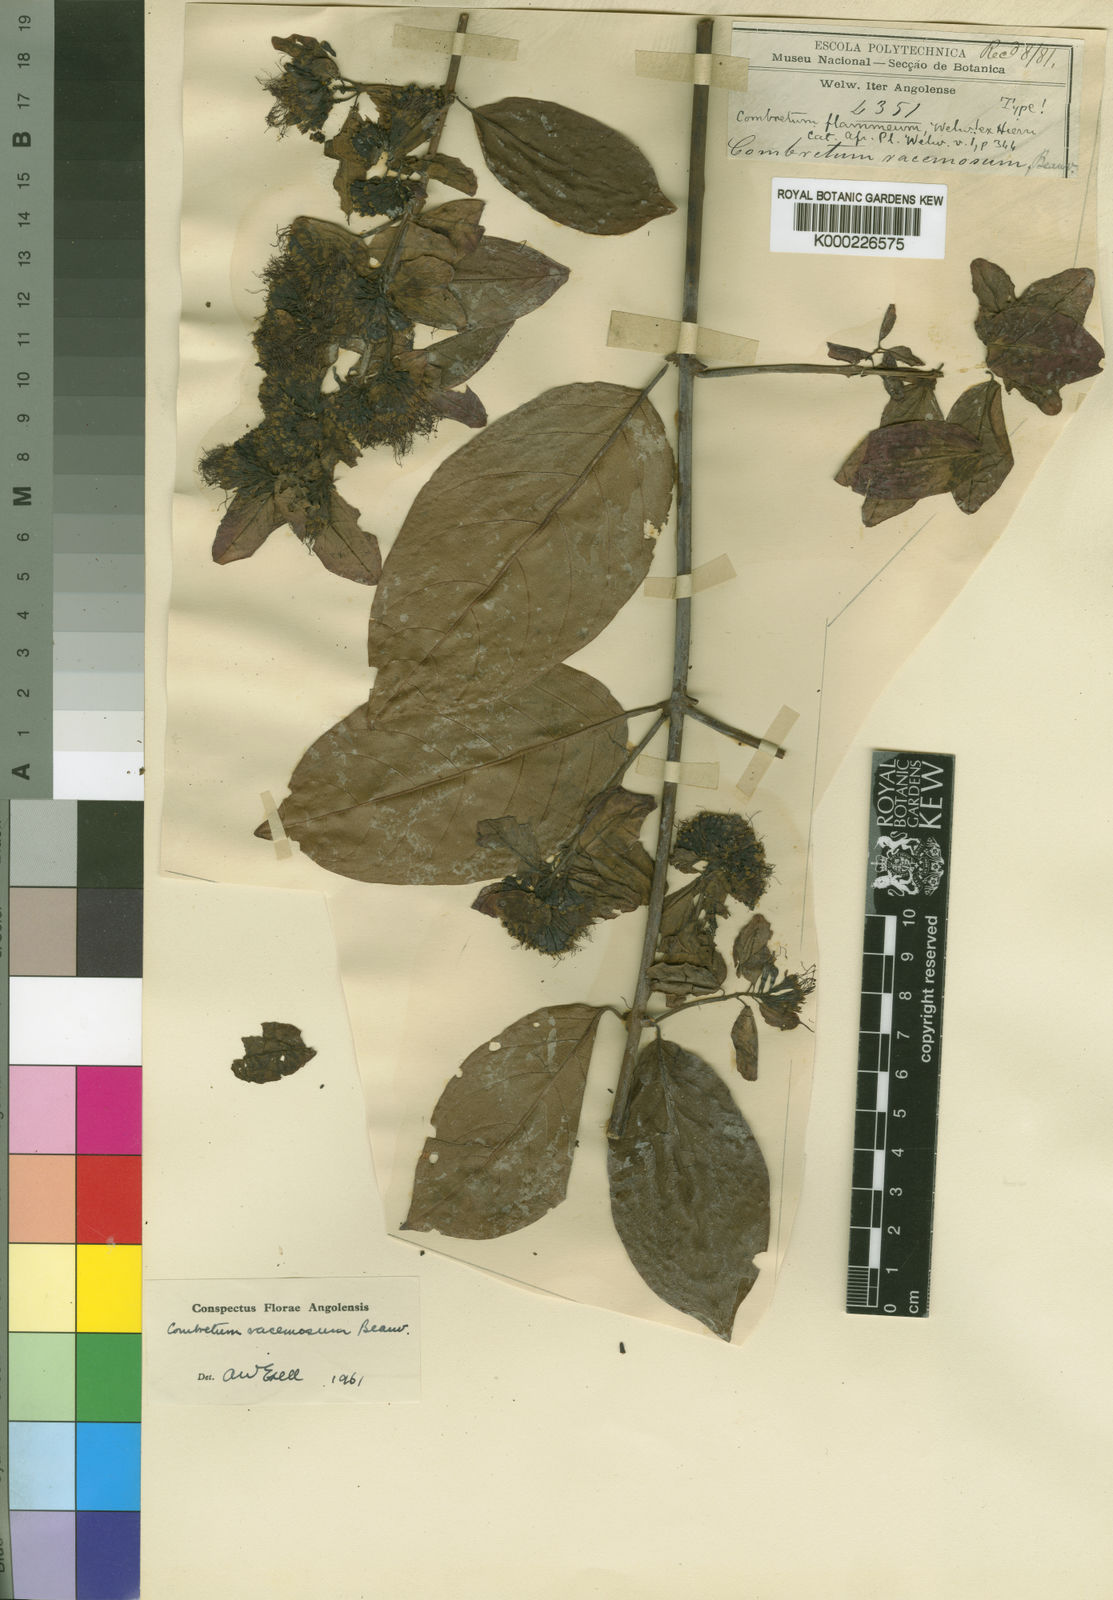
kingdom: Plantae
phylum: Tracheophyta
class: Magnoliopsida
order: Myrtales
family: Combretaceae
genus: Combretum
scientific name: Combretum racemosum
